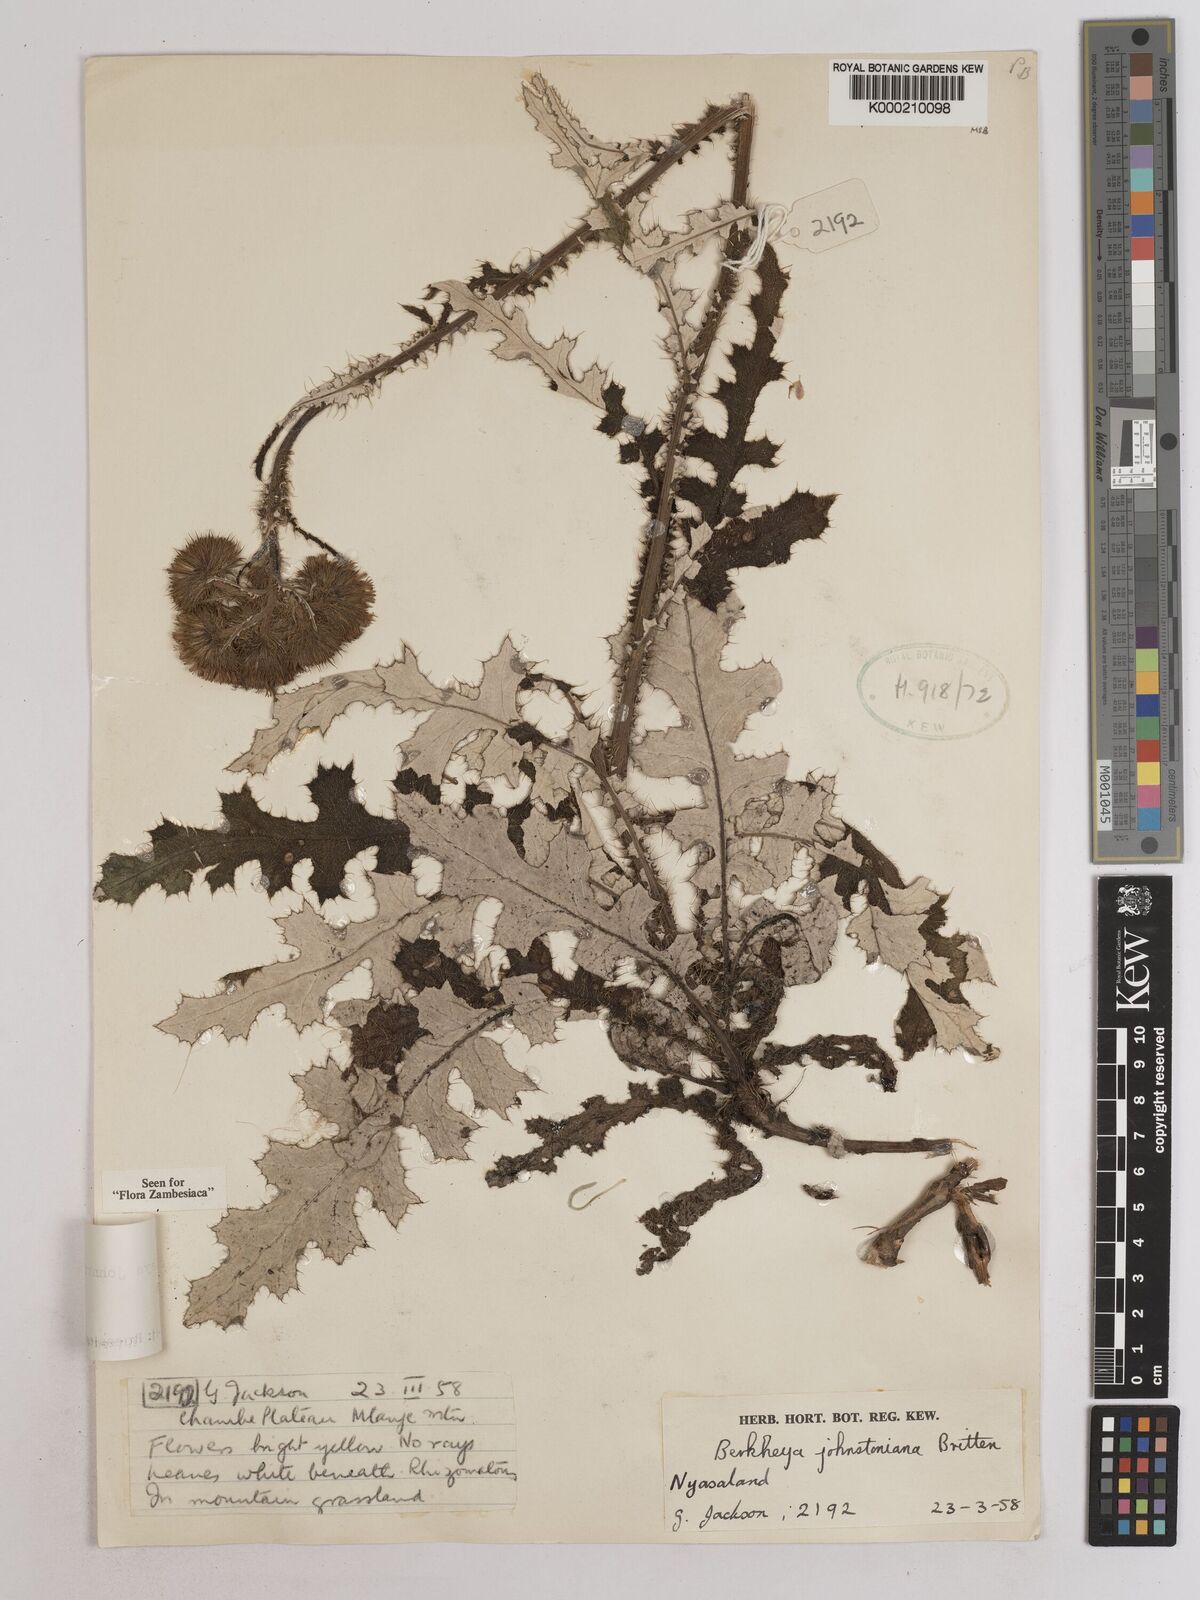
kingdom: Plantae
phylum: Tracheophyta
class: Magnoliopsida
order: Asterales
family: Asteraceae
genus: Berkheya
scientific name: Berkheya johnstoniana
